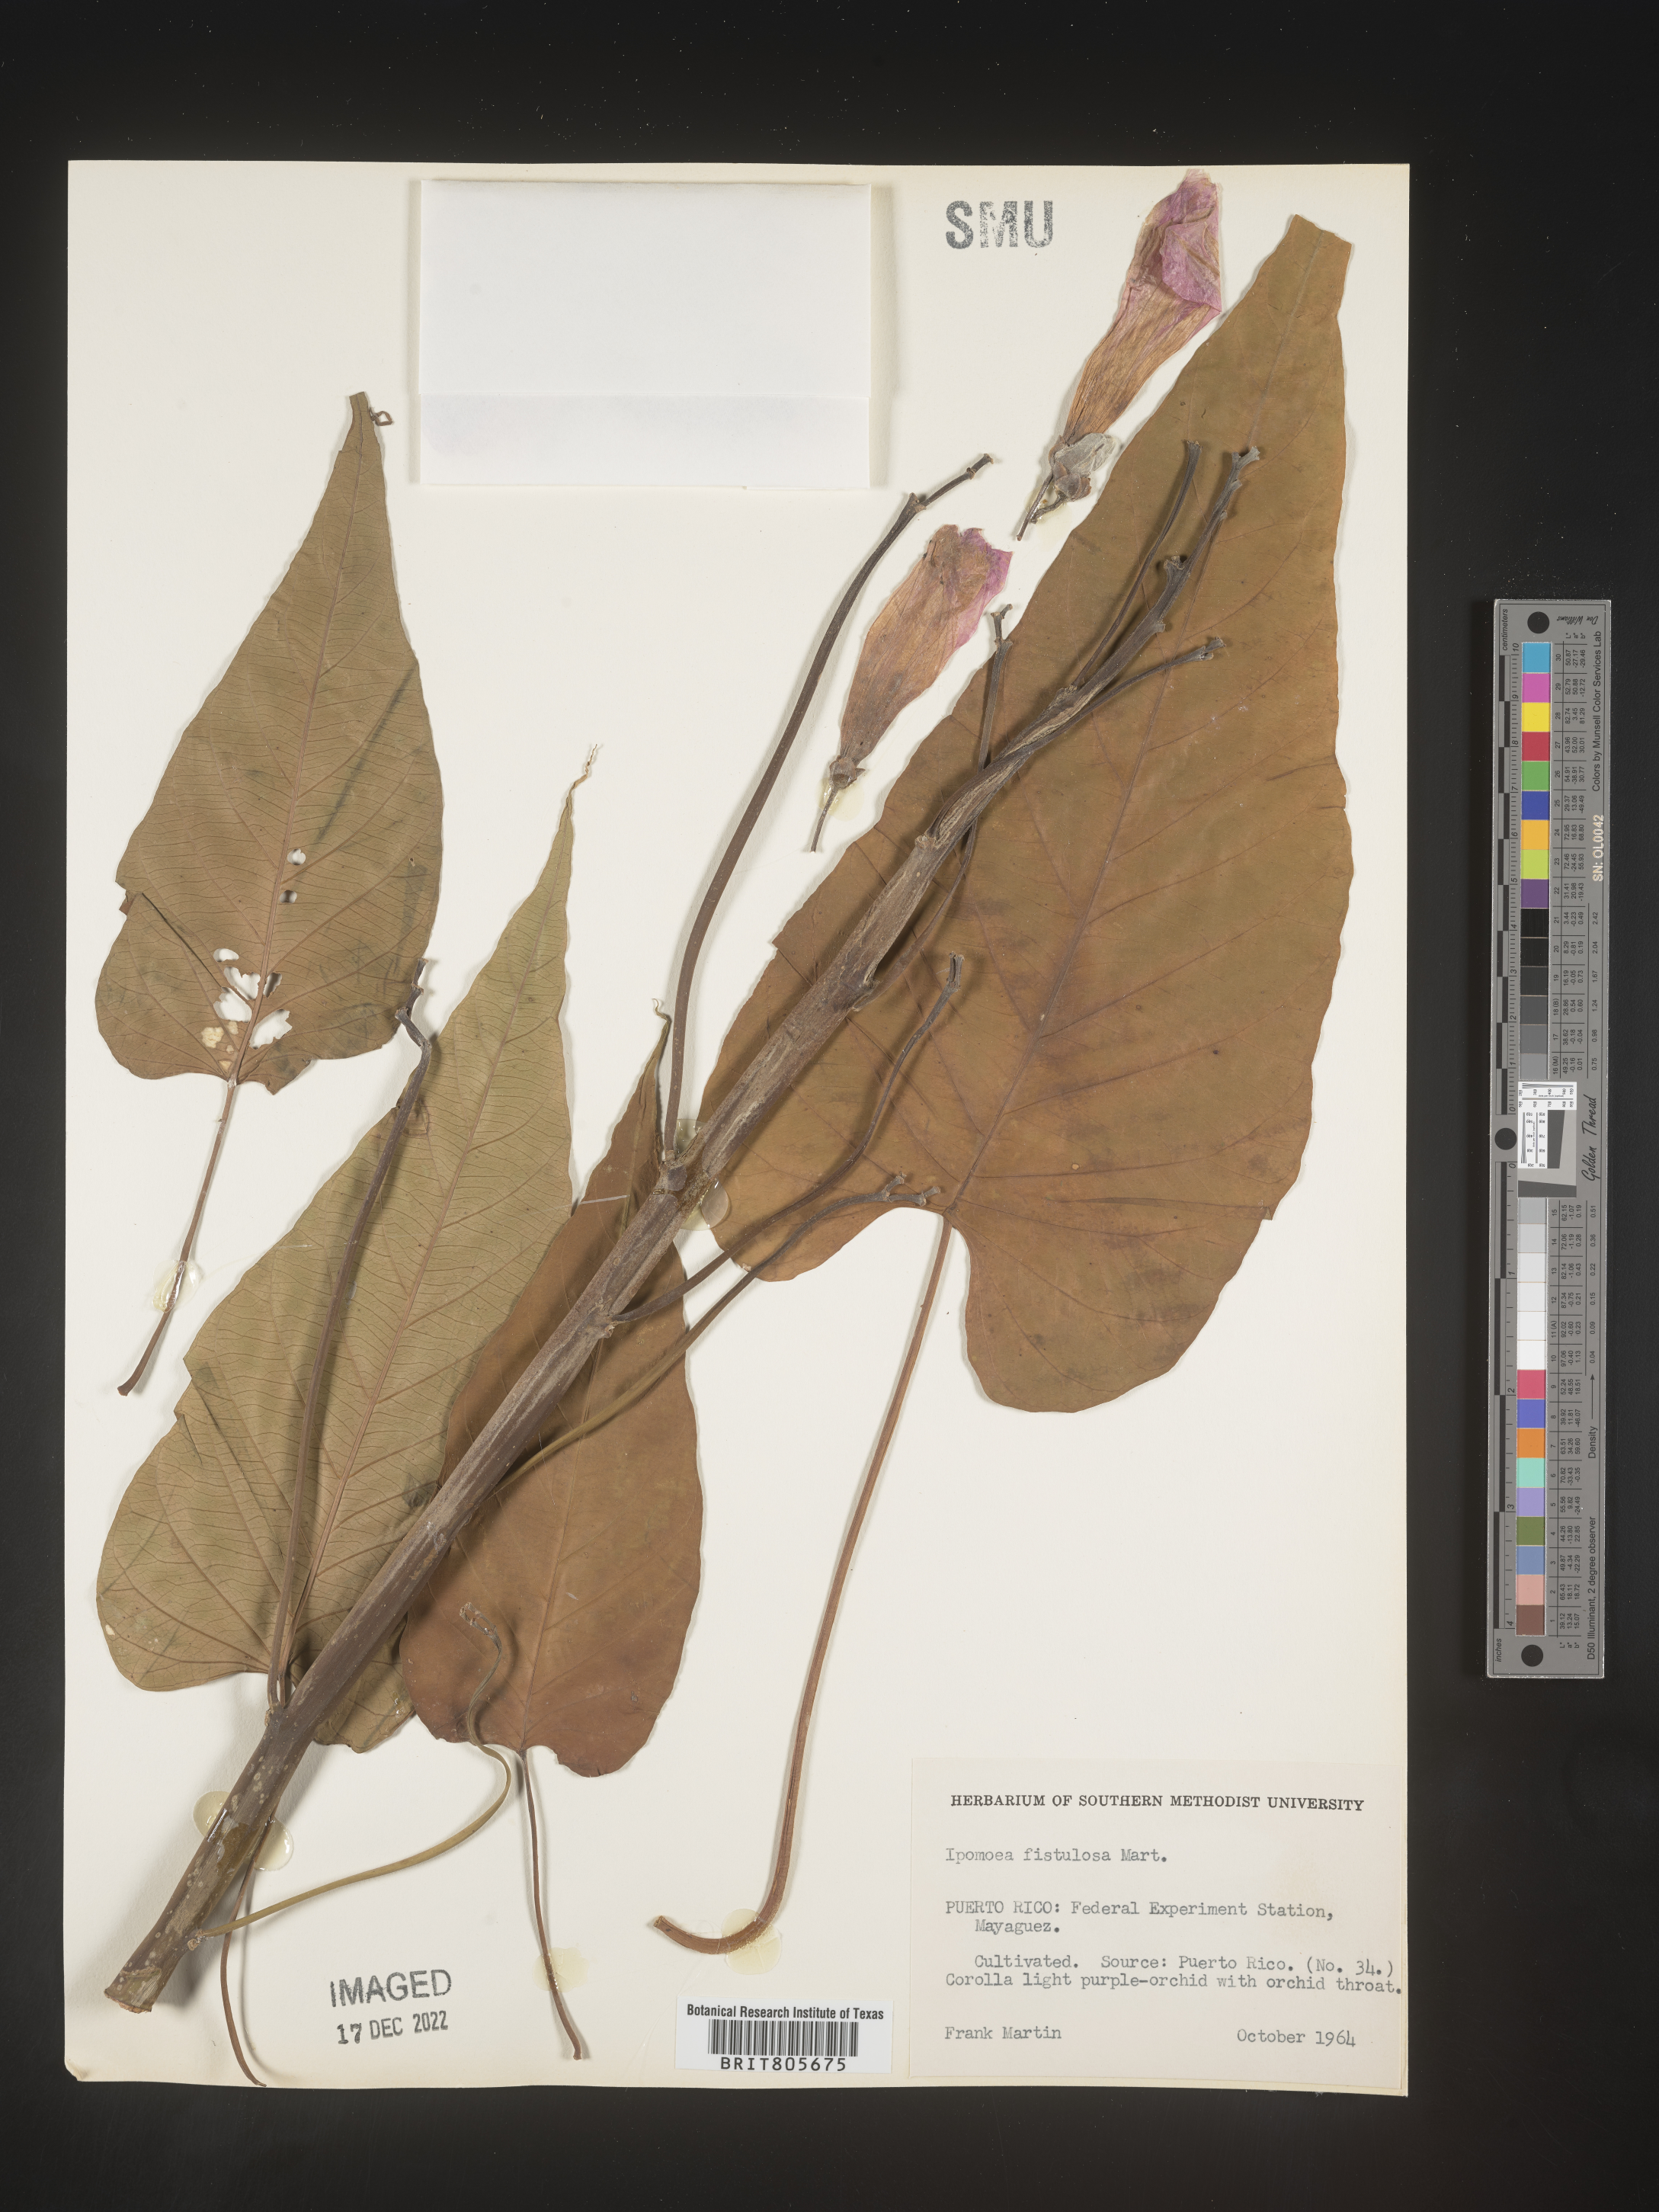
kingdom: Plantae
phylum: Tracheophyta
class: Magnoliopsida
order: Solanales
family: Convolvulaceae
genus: Ipomoea
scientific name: Ipomoea carnea
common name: Morning-glory
